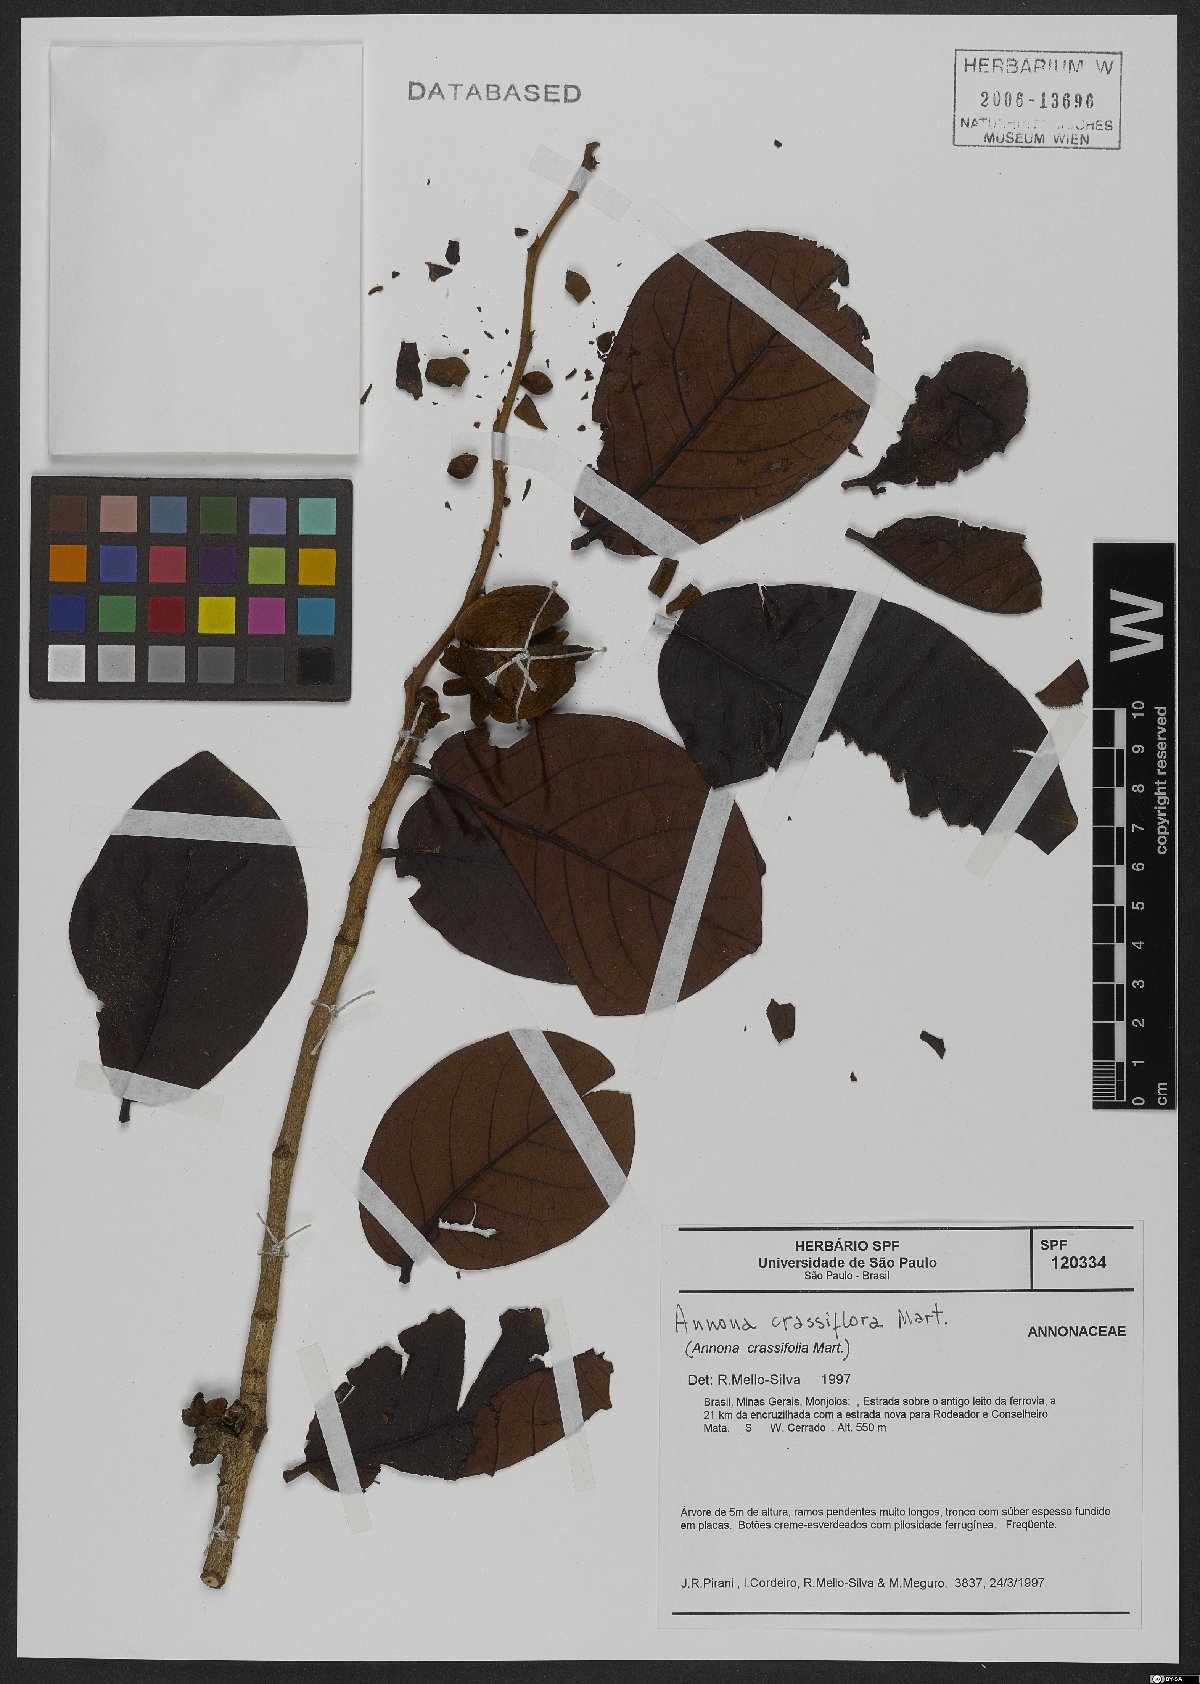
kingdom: Plantae
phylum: Tracheophyta
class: Magnoliopsida
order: Magnoliales
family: Annonaceae
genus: Annona
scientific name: Annona crassiflora
